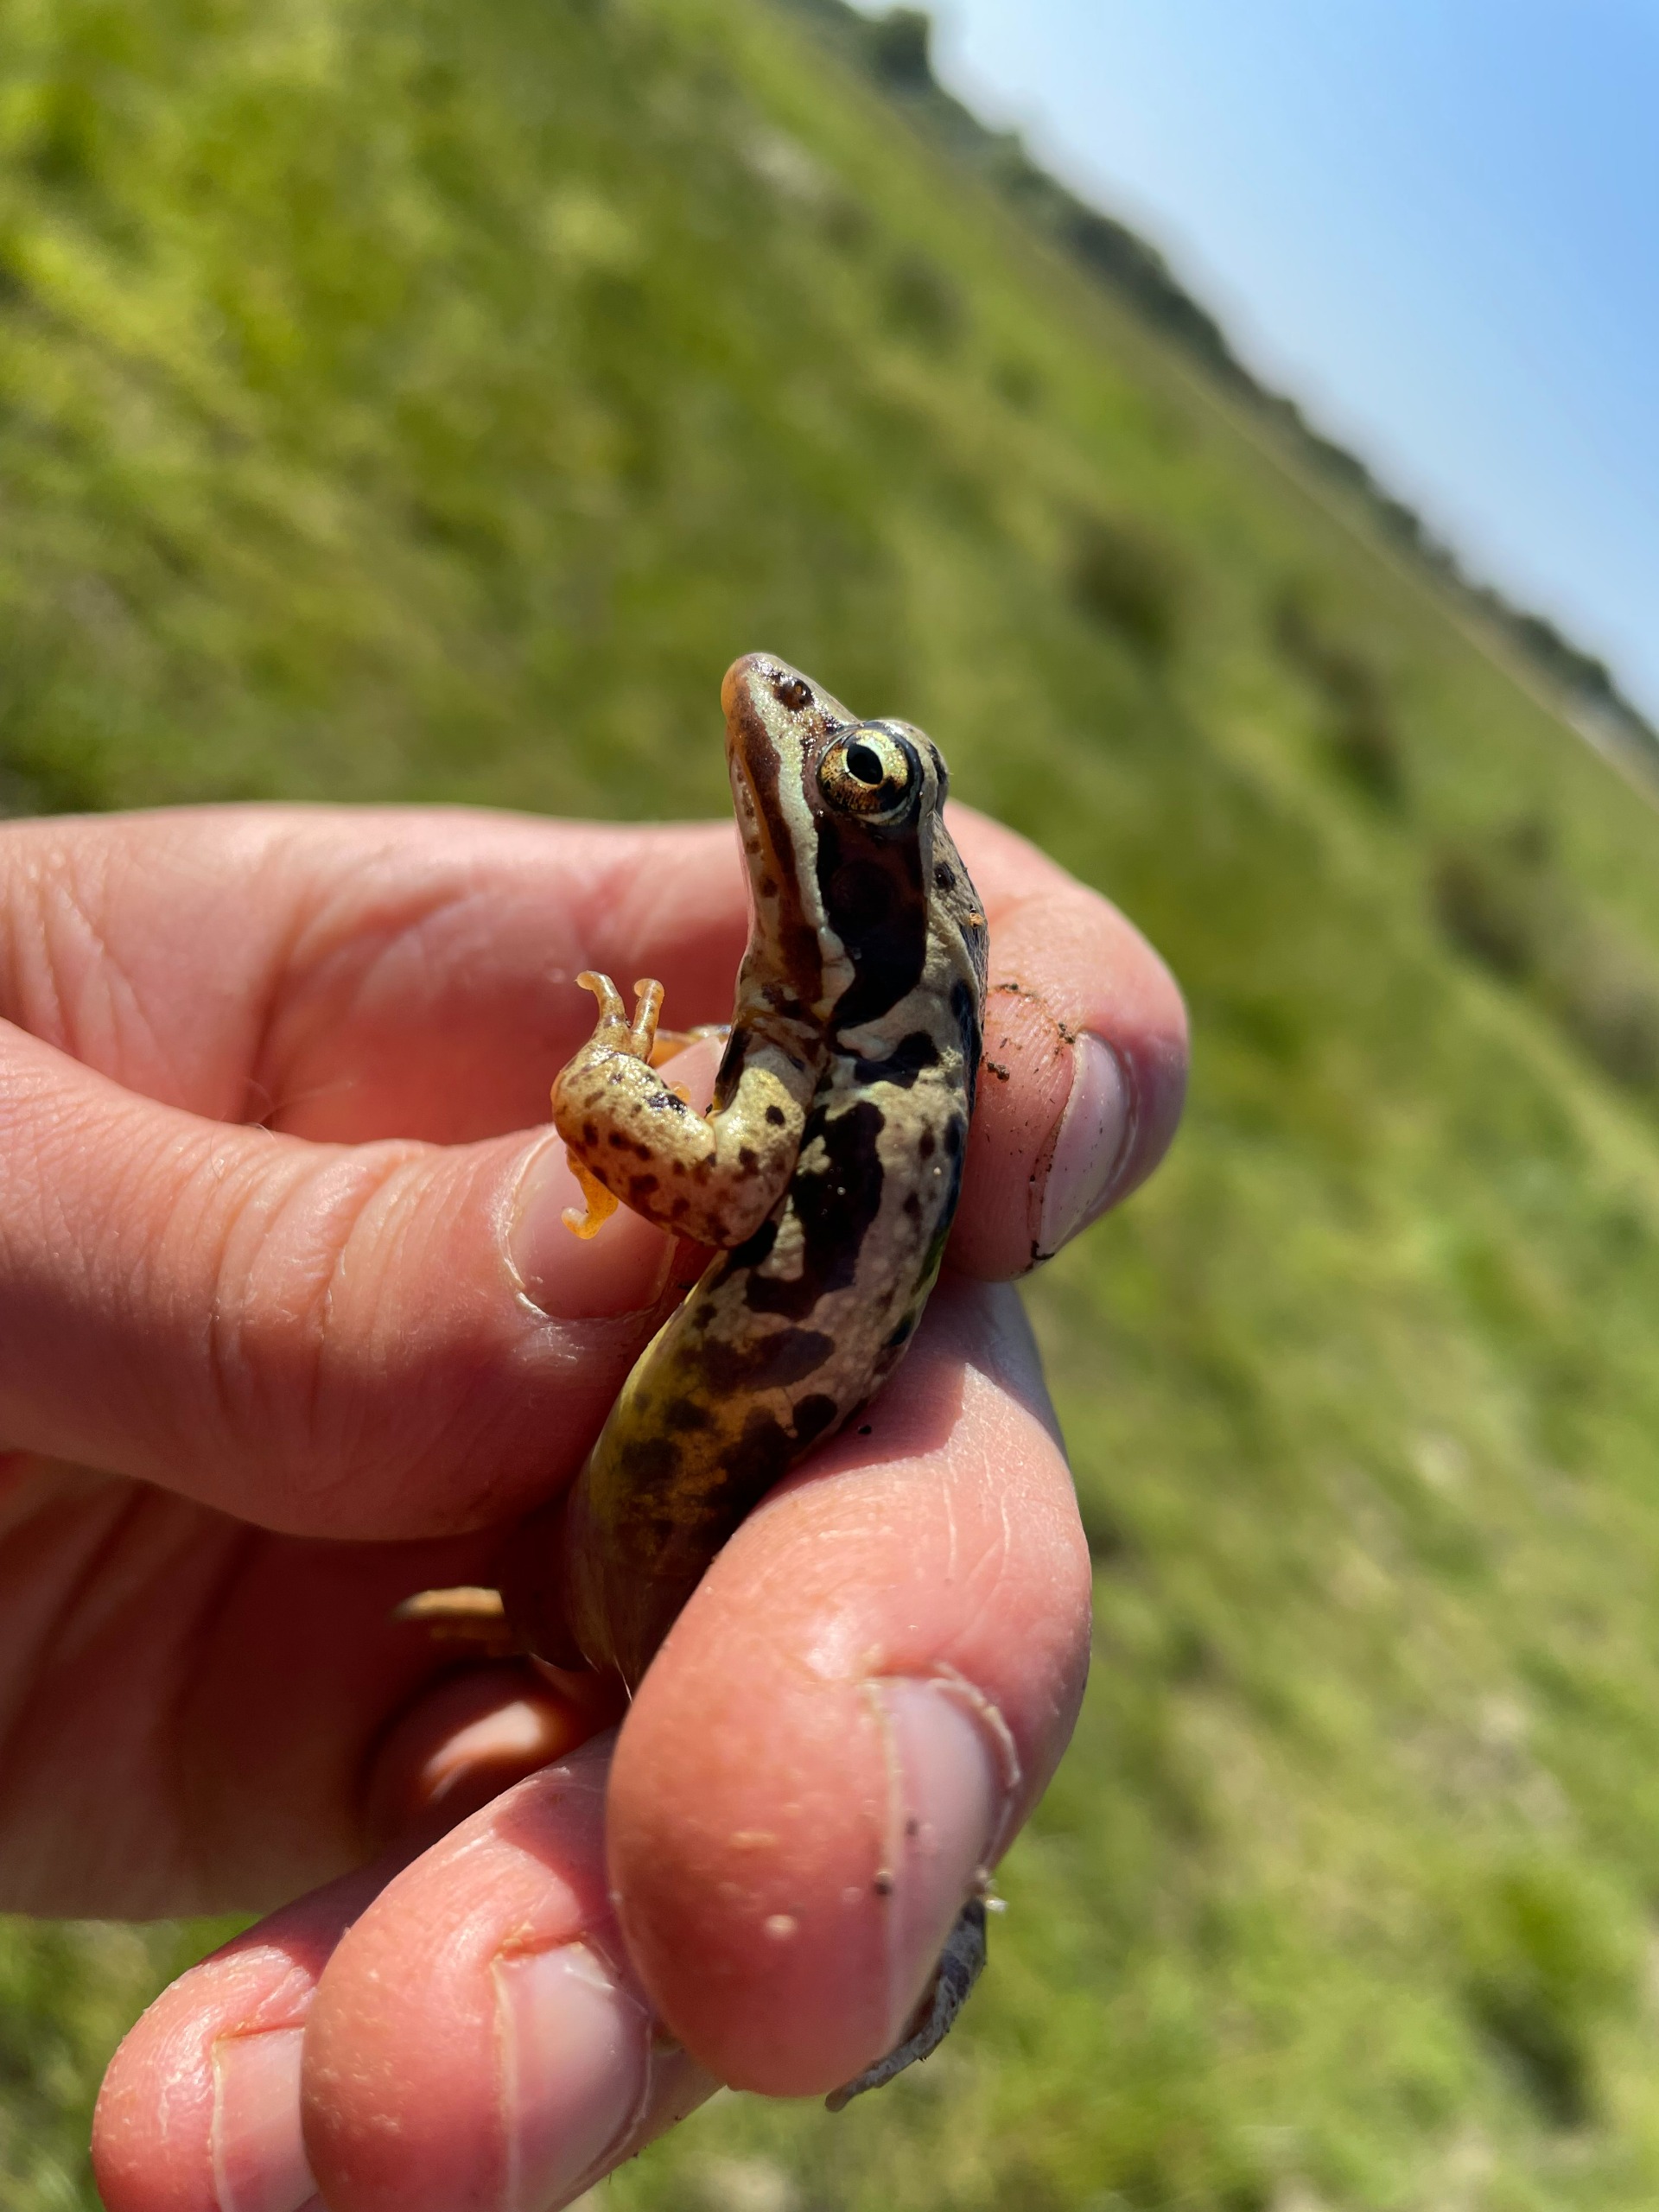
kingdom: Animalia
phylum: Chordata
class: Amphibia
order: Anura
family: Ranidae
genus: Rana
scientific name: Rana arvalis
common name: Spidssnudet frø
